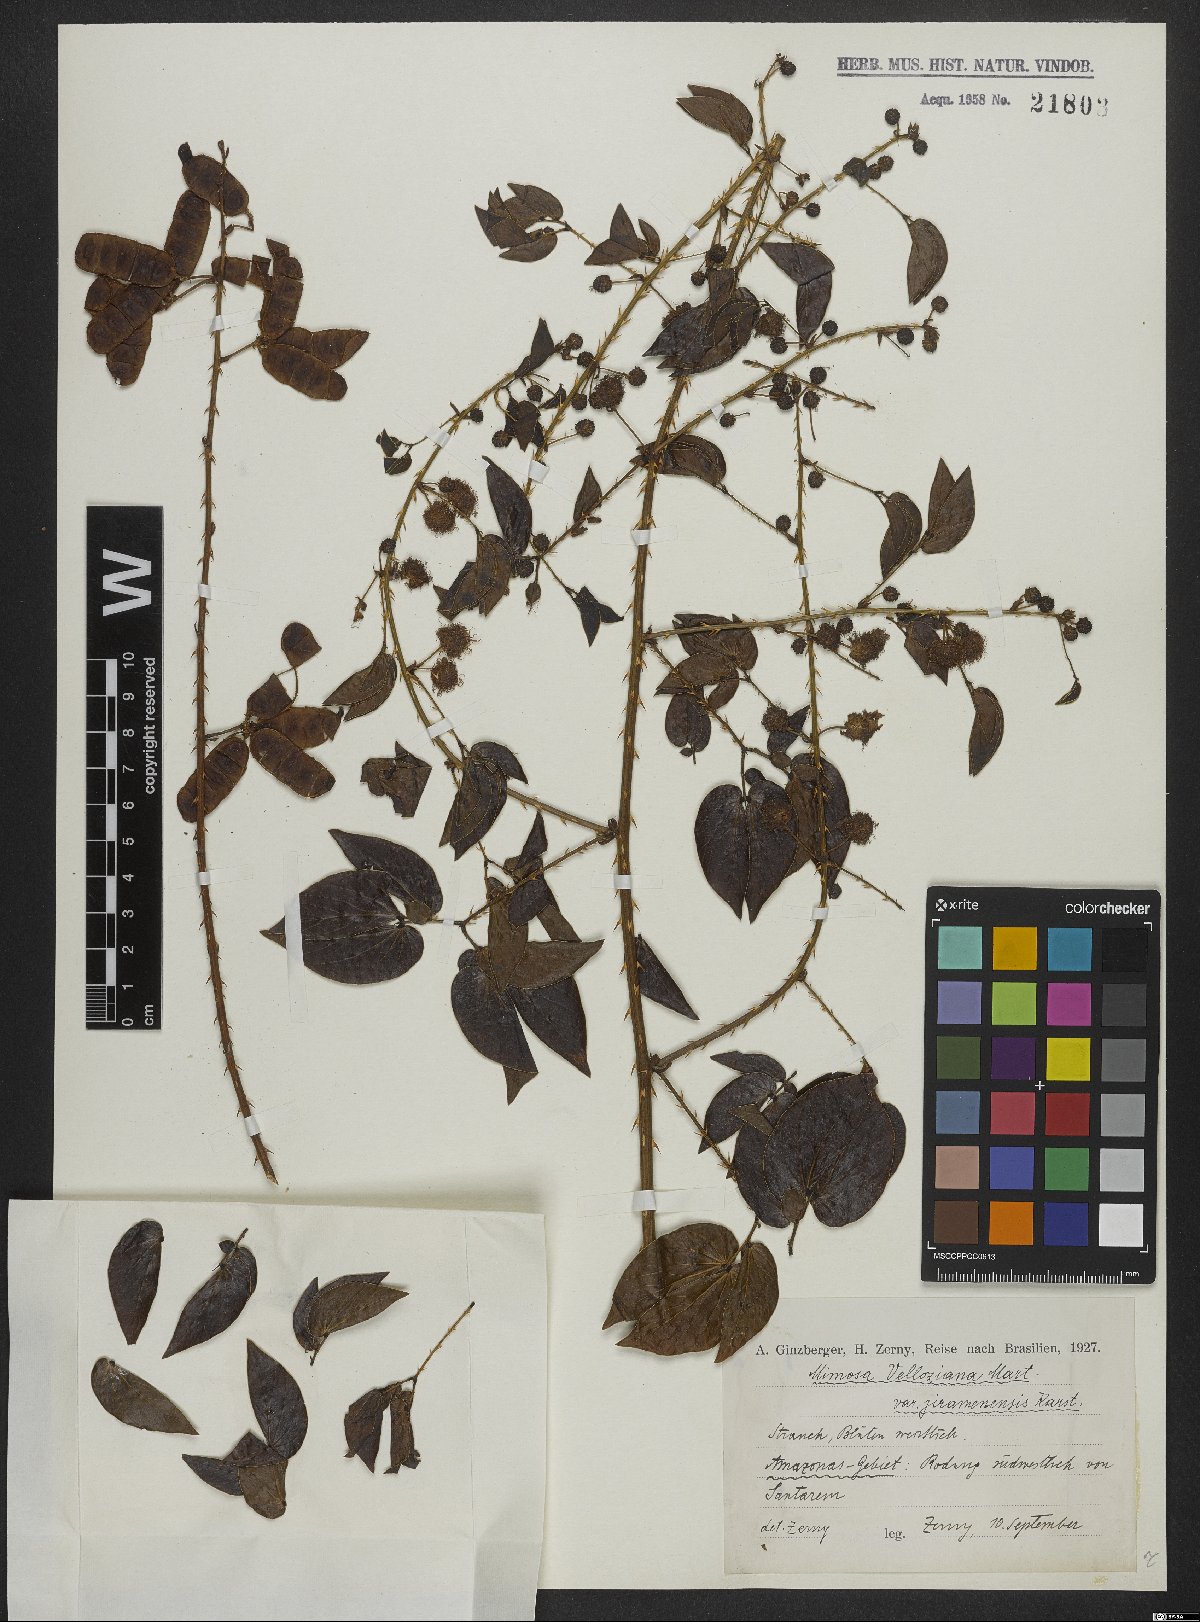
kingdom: Plantae
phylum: Tracheophyta
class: Magnoliopsida
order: Fabales
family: Fabaceae
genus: Mimosa
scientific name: Mimosa velloziana
